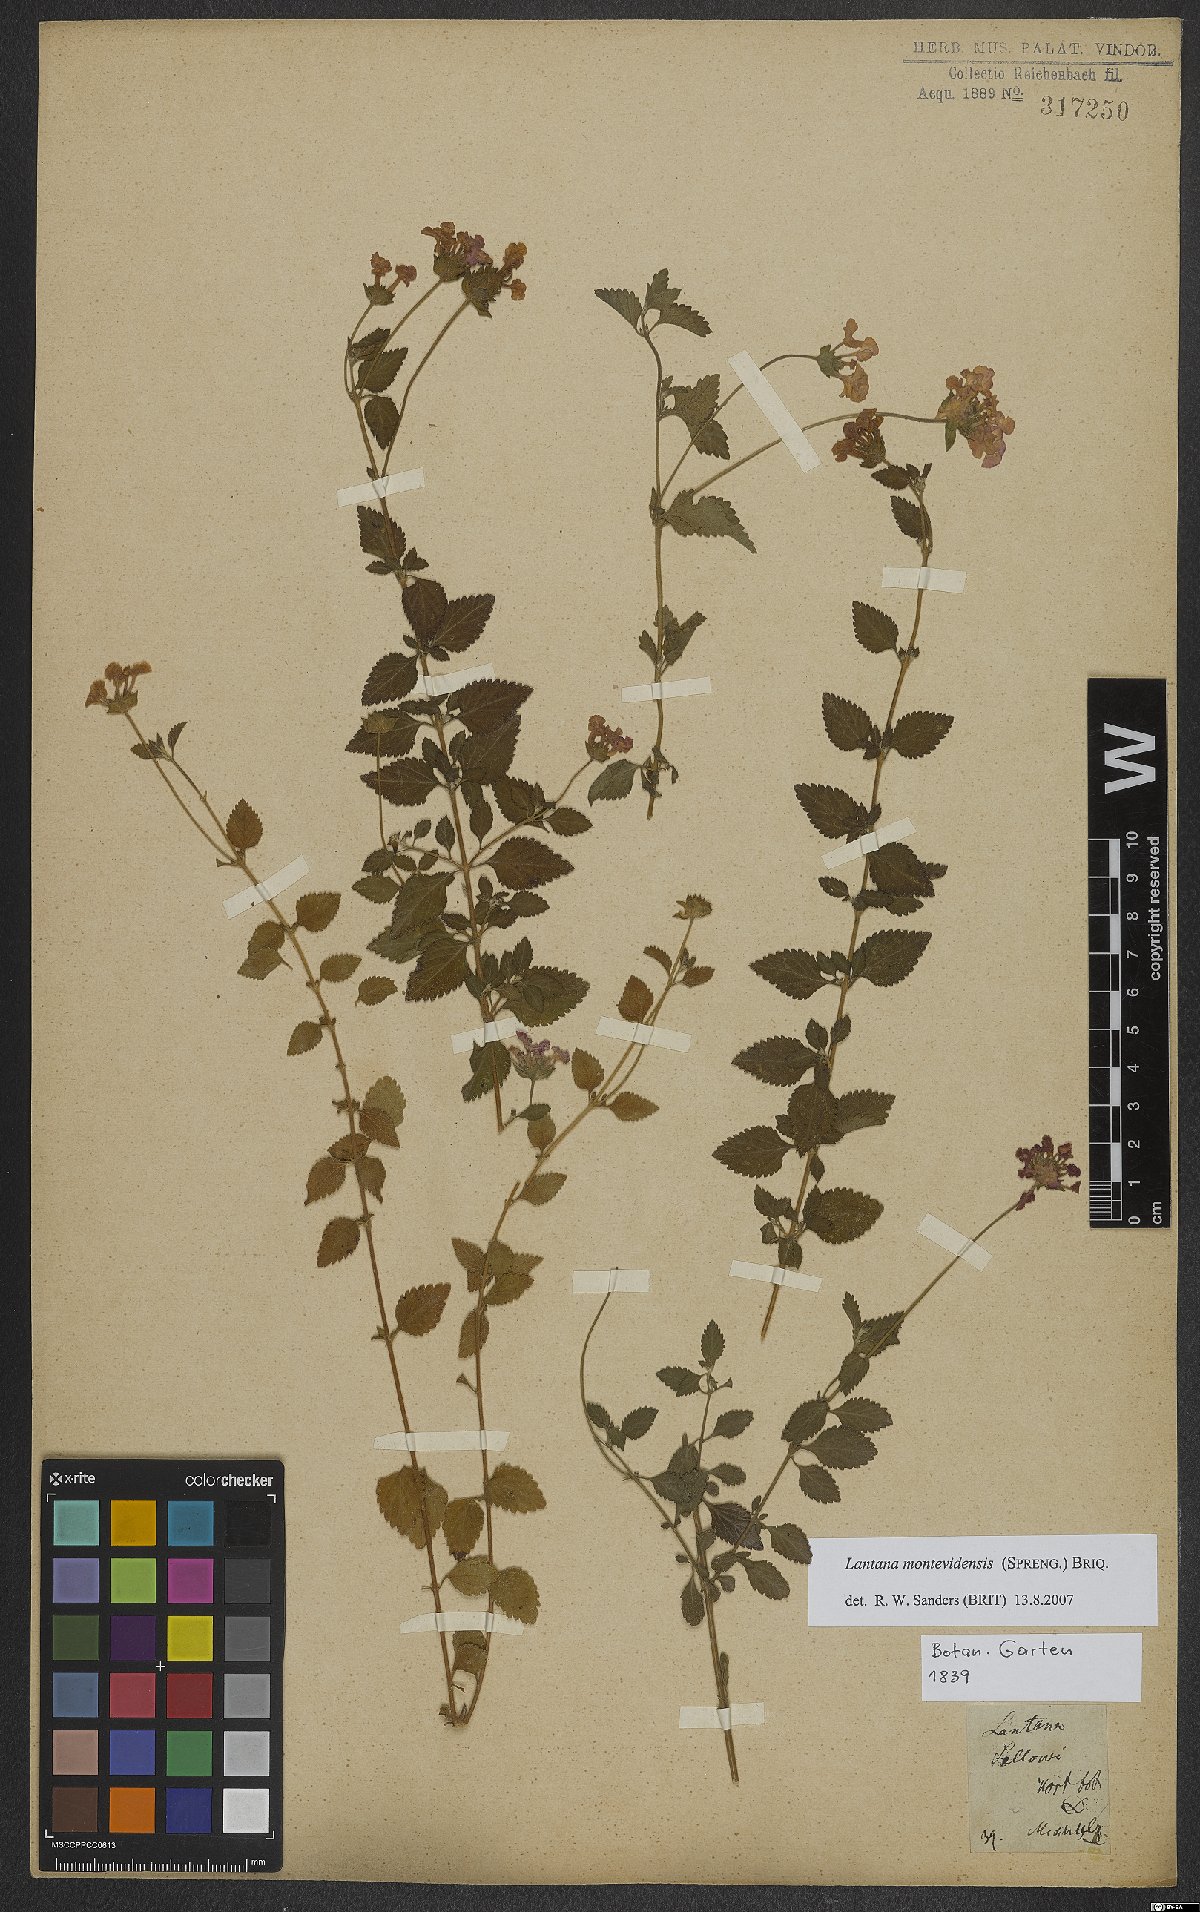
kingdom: Plantae
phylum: Tracheophyta
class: Magnoliopsida
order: Lamiales
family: Verbenaceae
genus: Lantana
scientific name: Lantana montevidensis
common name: Trailing shrubverbena
